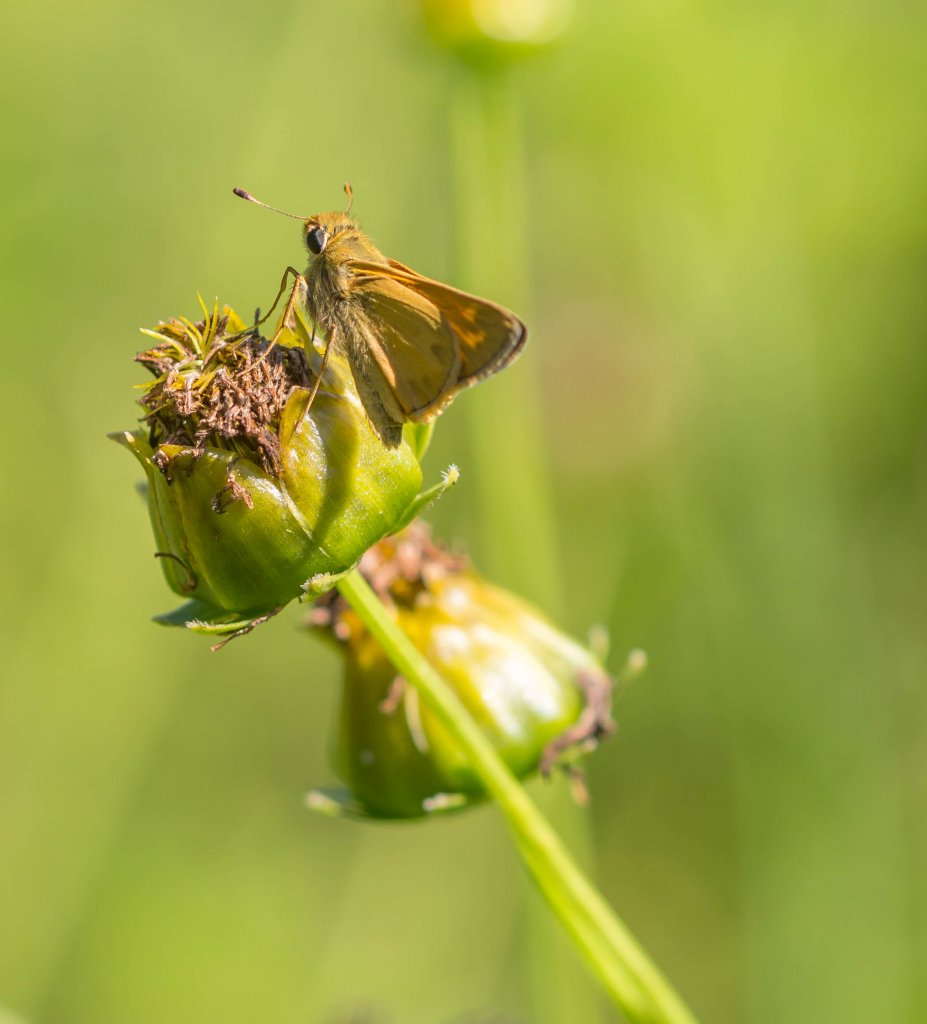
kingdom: Animalia
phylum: Arthropoda
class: Insecta
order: Lepidoptera
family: Hesperiidae
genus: Atalopedes
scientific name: Atalopedes campestris
